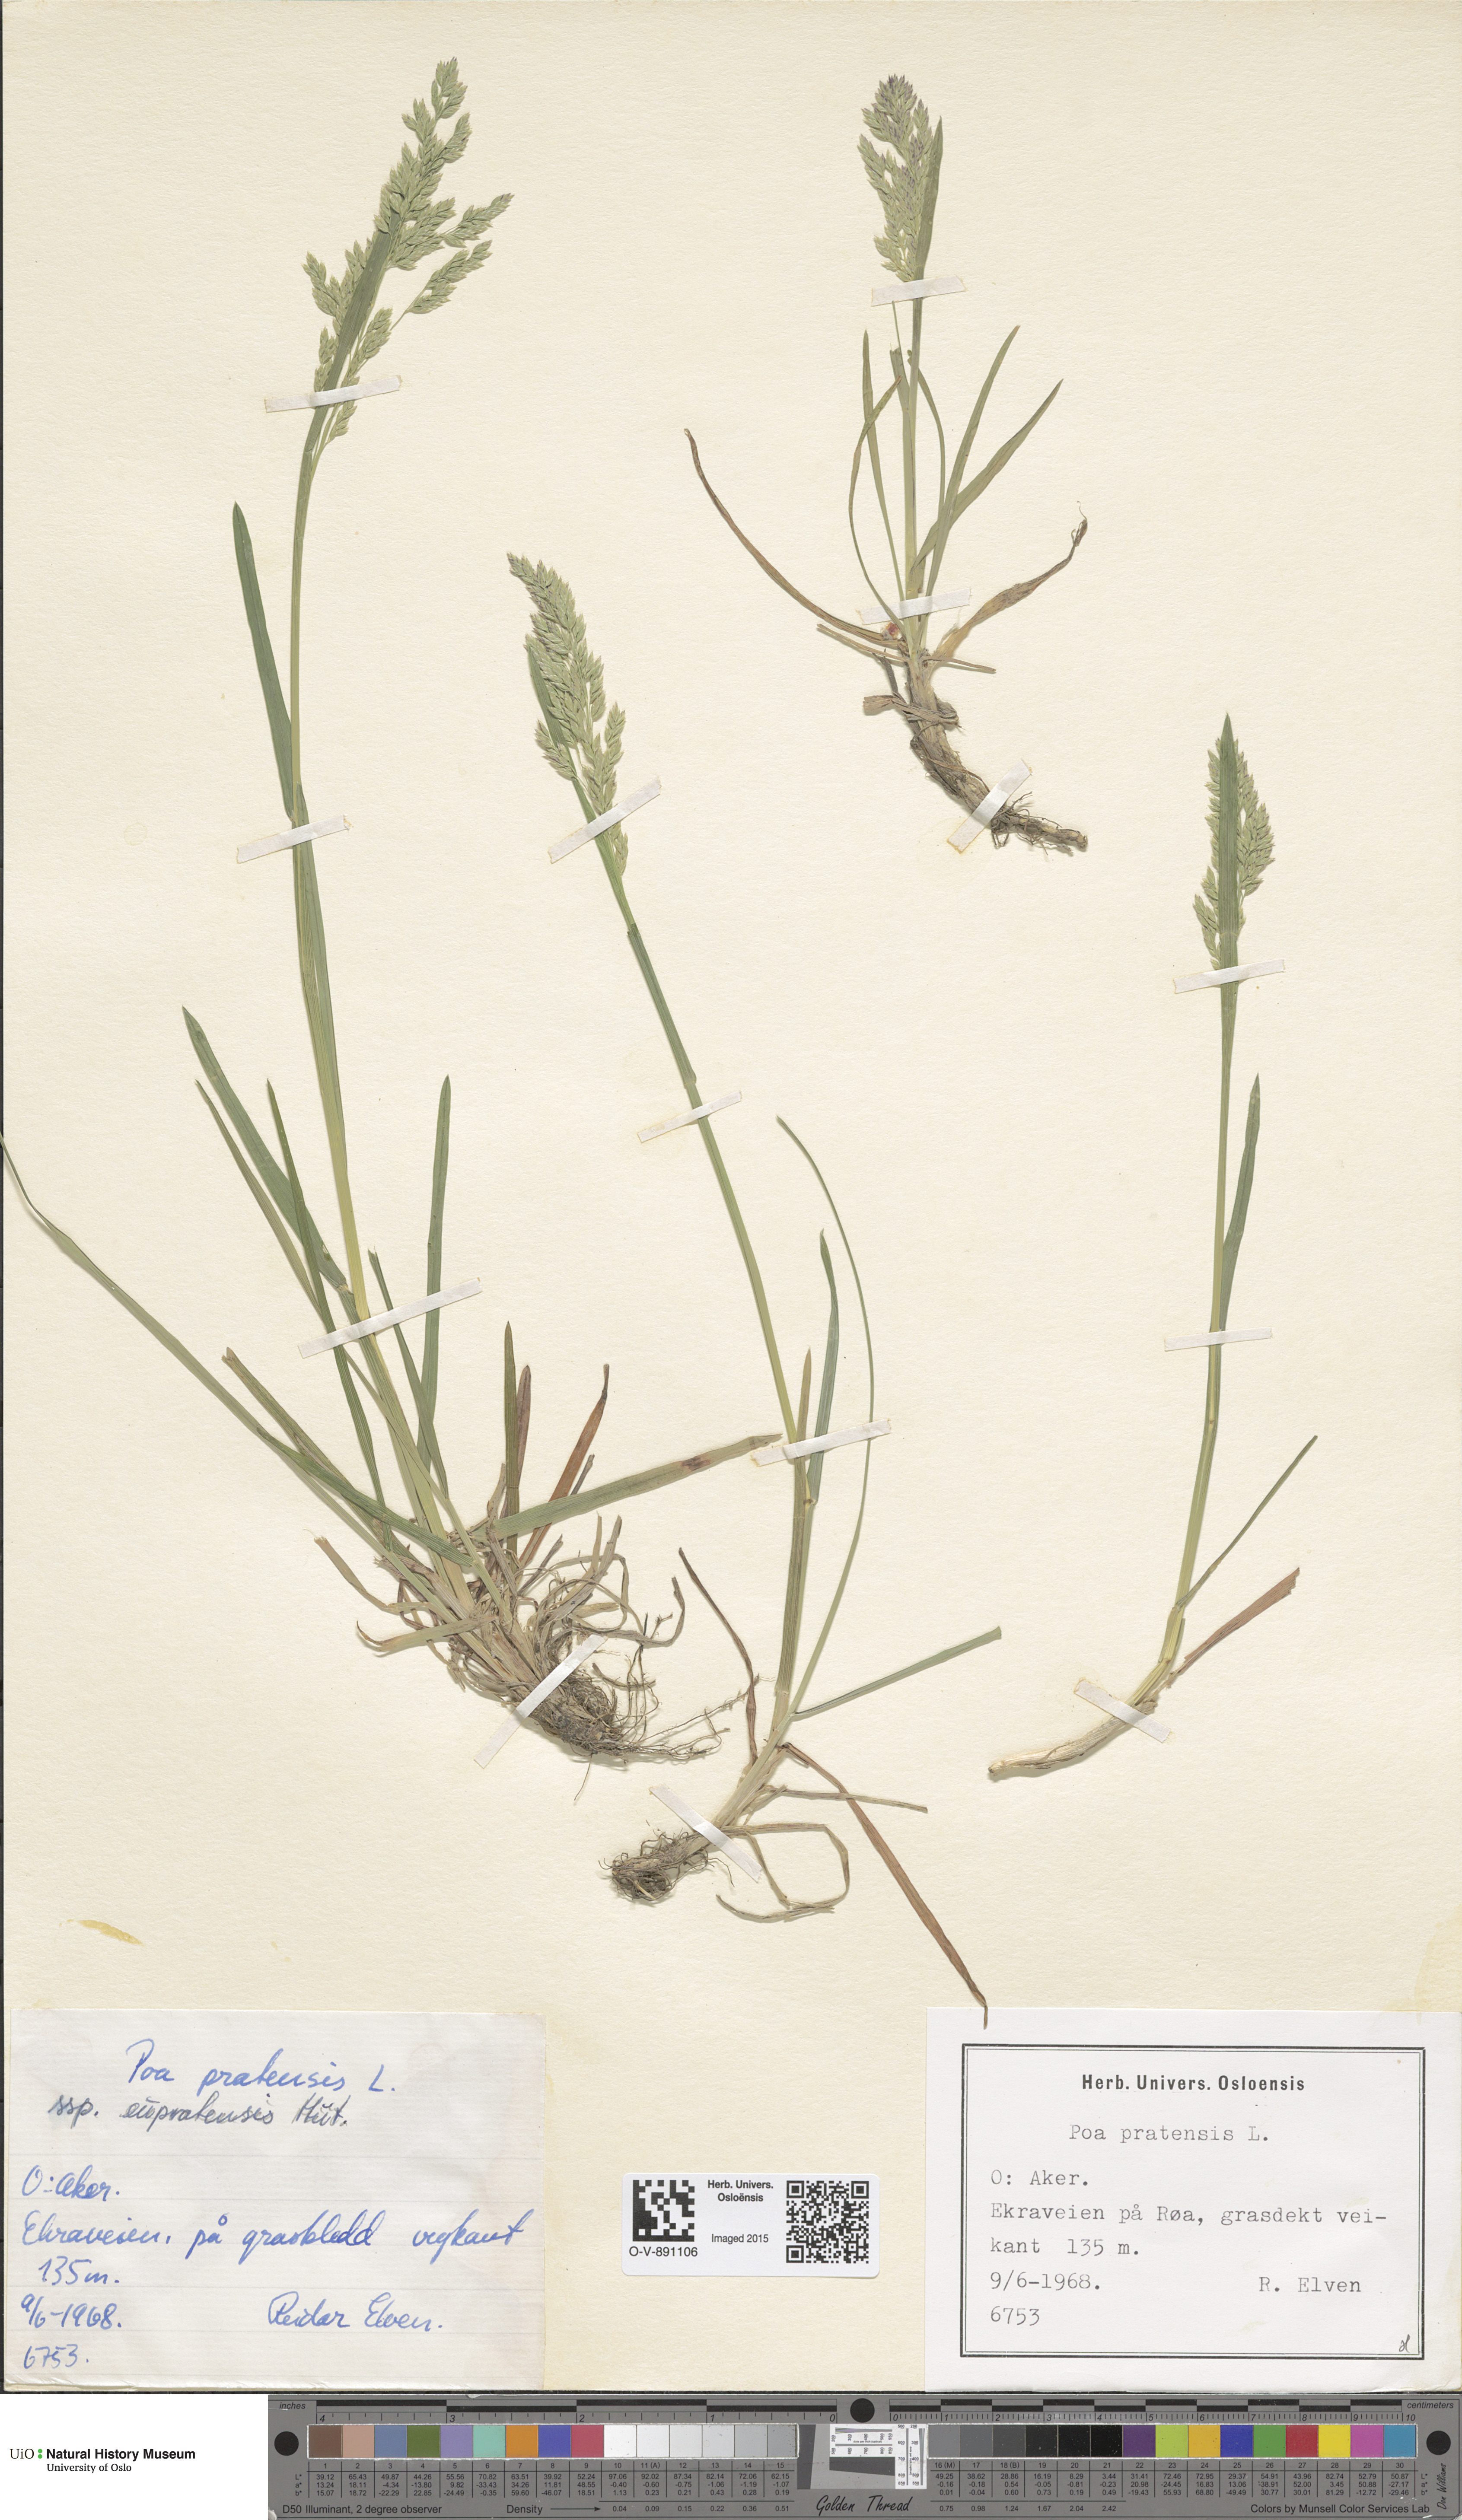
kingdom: Plantae
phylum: Tracheophyta
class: Liliopsida
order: Poales
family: Poaceae
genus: Poa
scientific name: Poa pratensis
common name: Kentucky bluegrass
